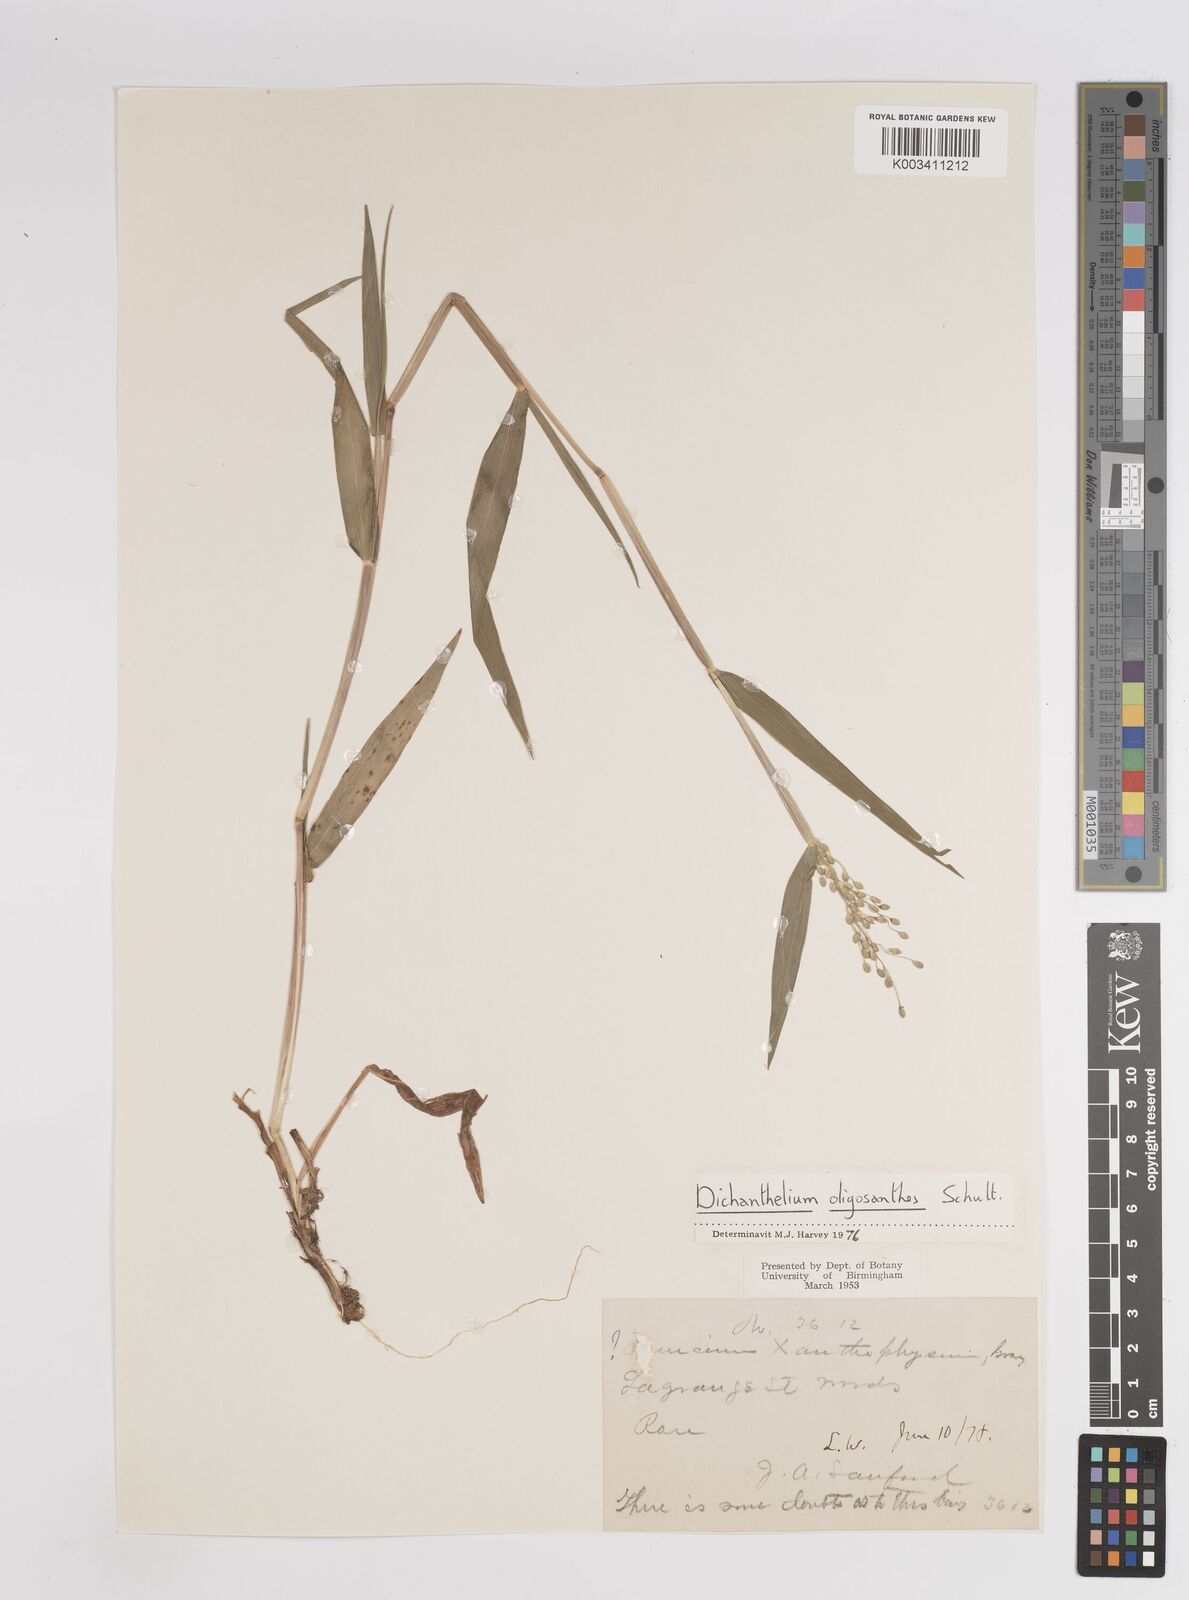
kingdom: Plantae
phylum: Tracheophyta
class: Liliopsida
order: Poales
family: Poaceae
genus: Dichanthelium
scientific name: Dichanthelium oligosanthes
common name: Few-anther obscuregrass
